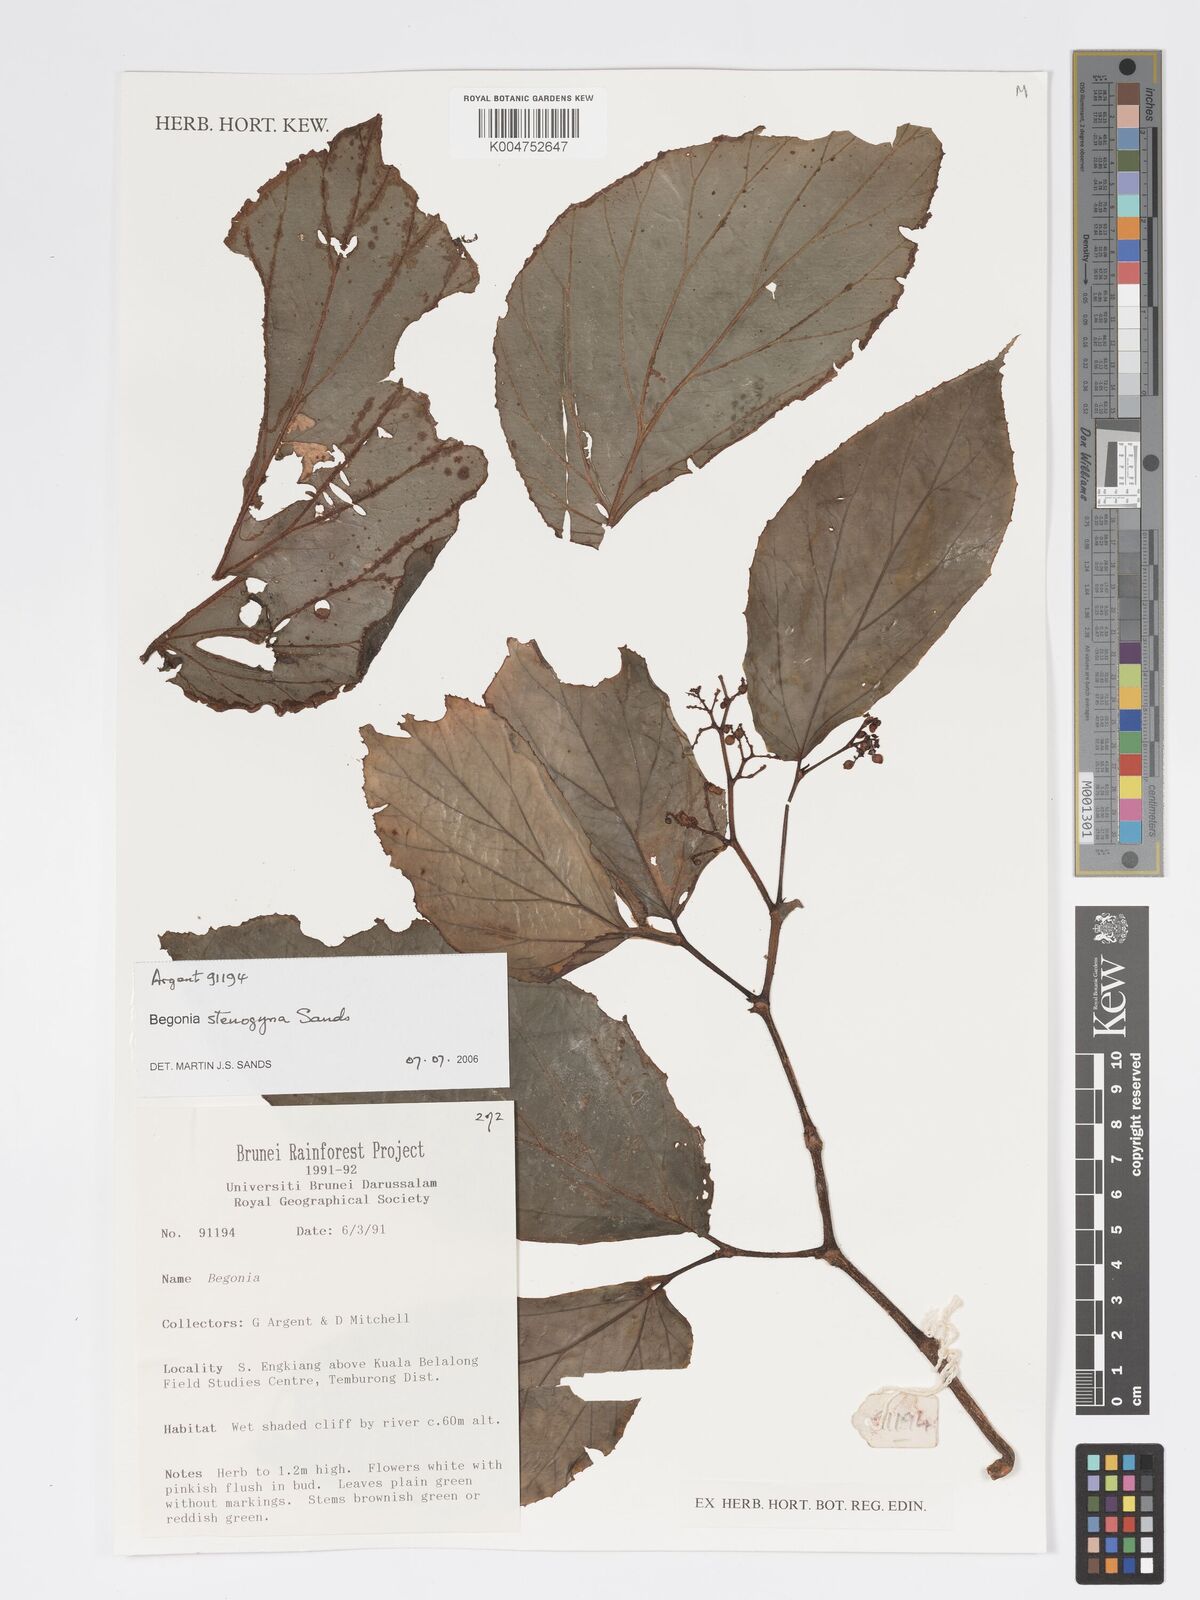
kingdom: Plantae
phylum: Tracheophyta
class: Magnoliopsida
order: Cucurbitales
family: Begoniaceae
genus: Begonia
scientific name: Begonia stenogyna
